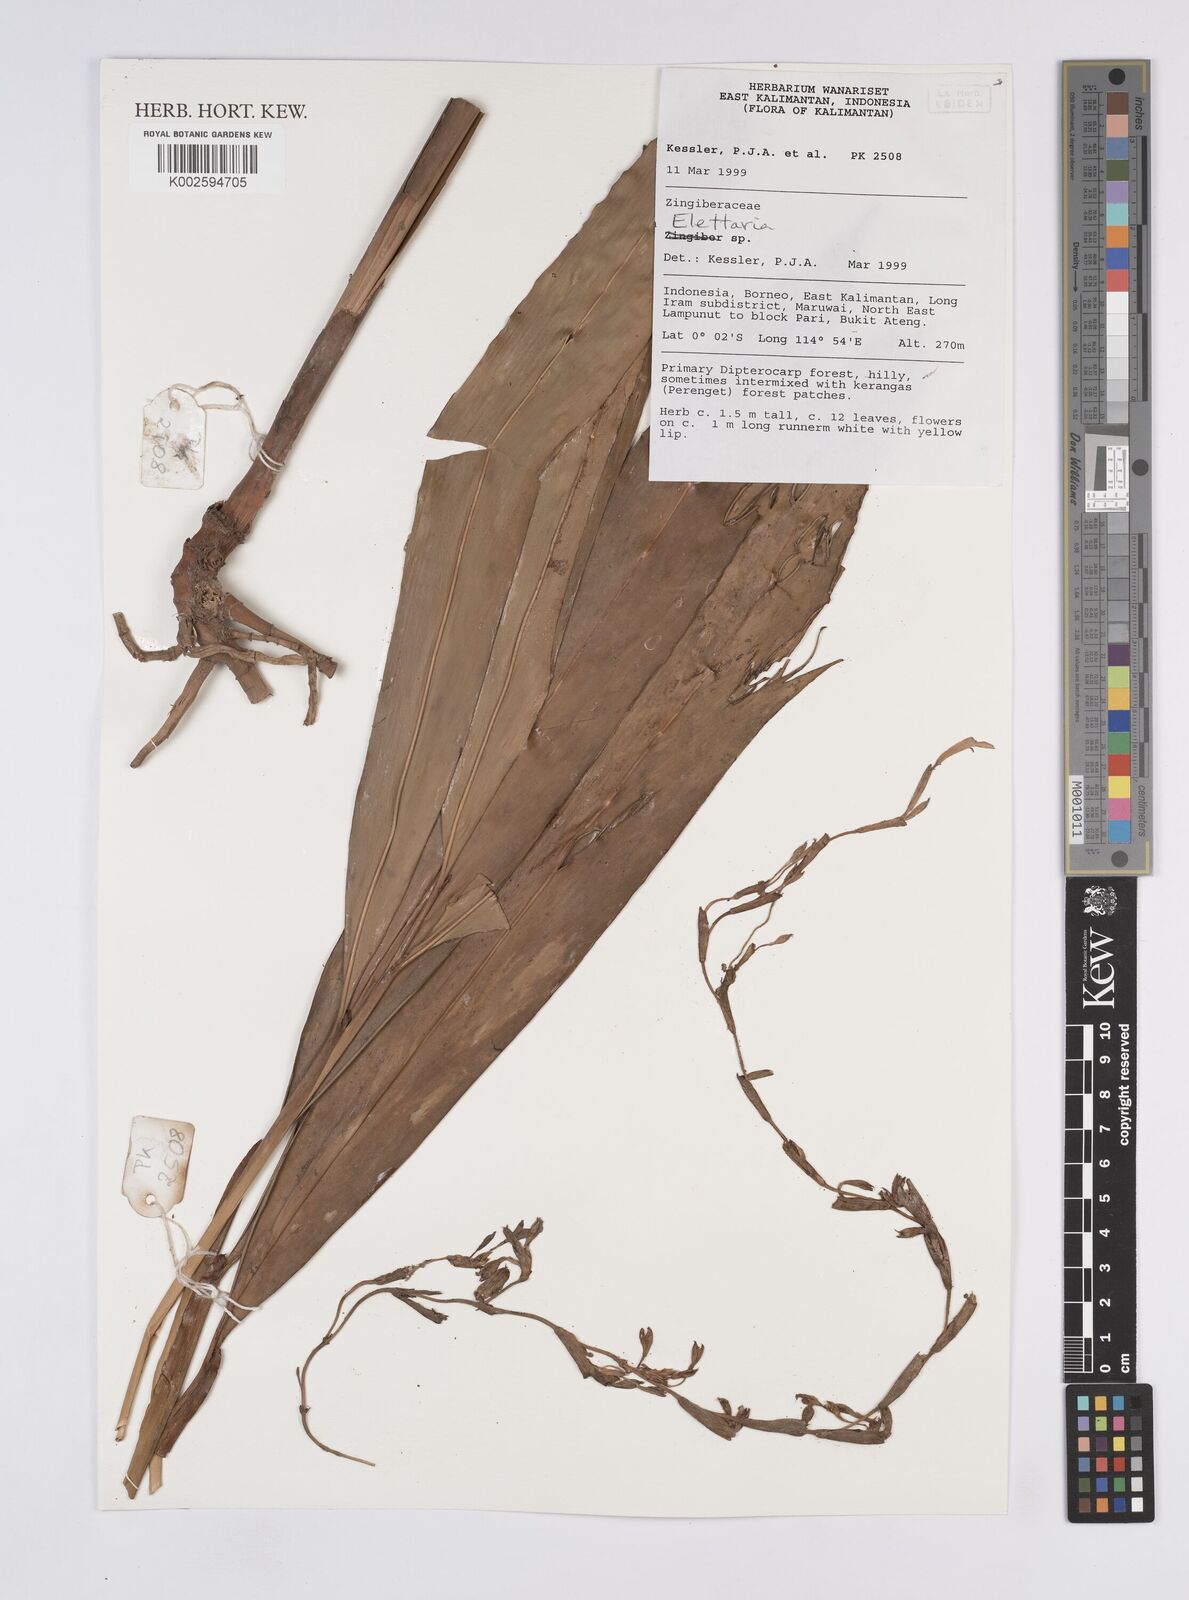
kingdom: Plantae
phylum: Tracheophyta
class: Liliopsida
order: Zingiberales
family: Zingiberaceae
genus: Elettaria
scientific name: Elettaria
